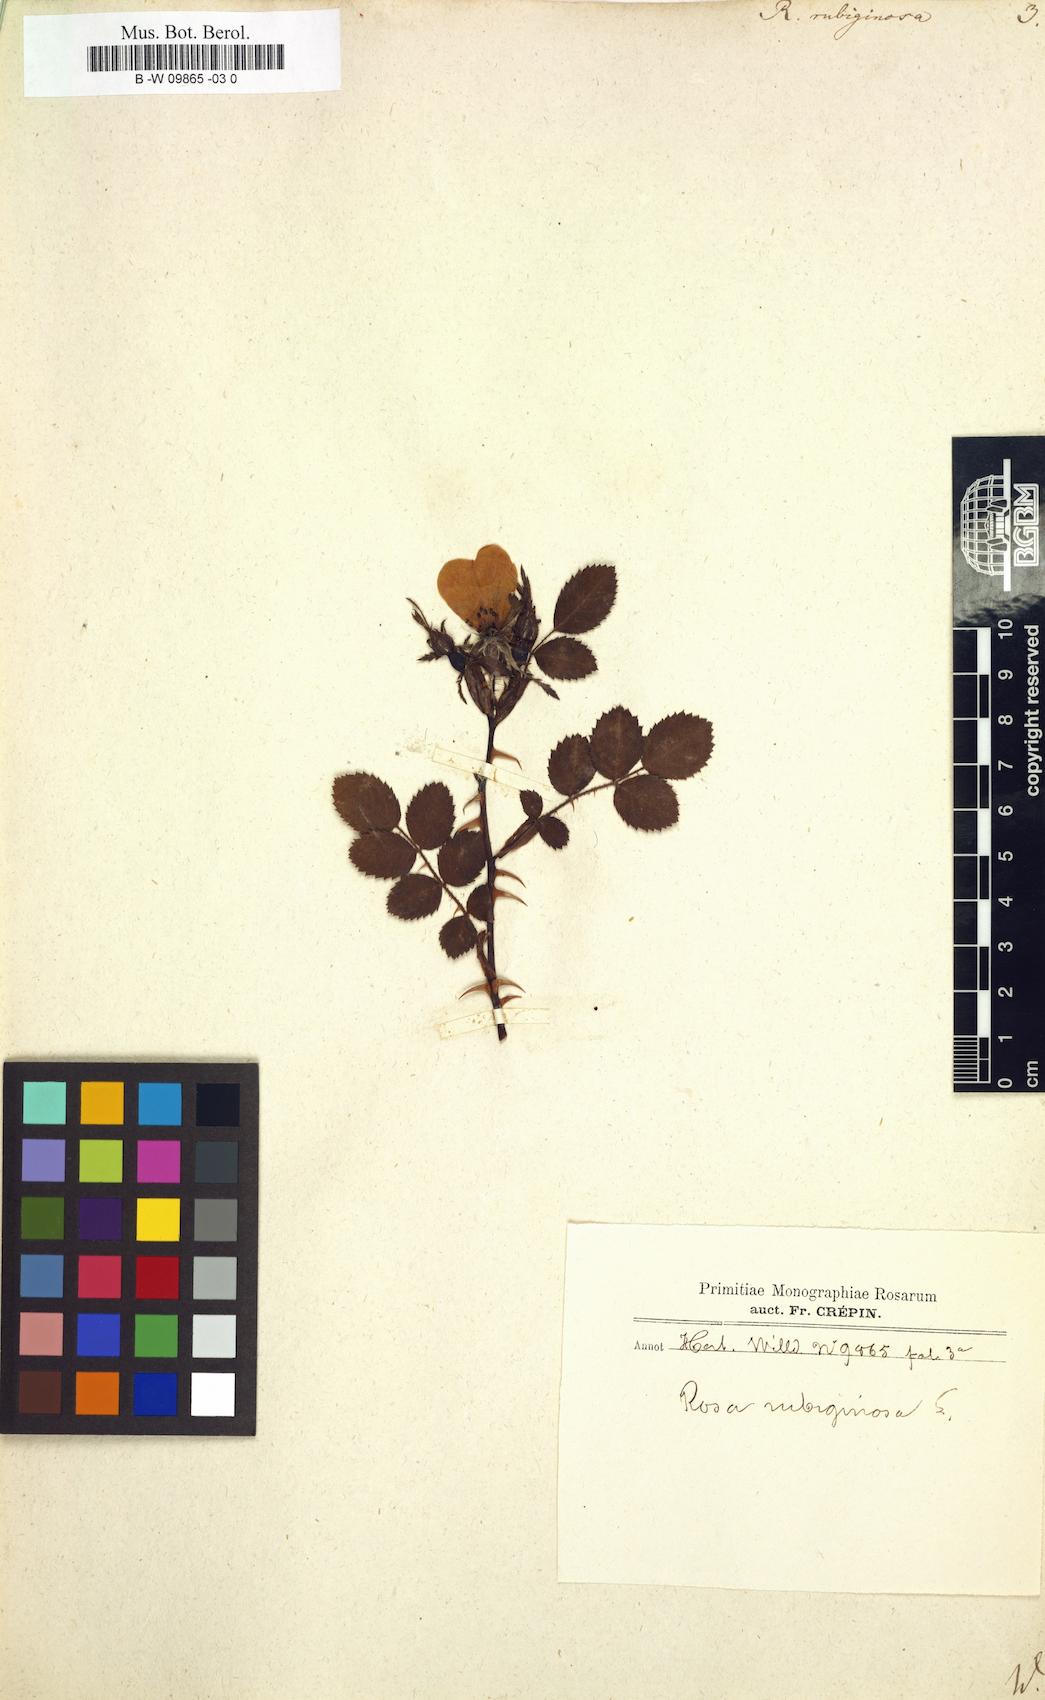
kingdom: Plantae
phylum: Tracheophyta
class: Magnoliopsida
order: Rosales
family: Rosaceae
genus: Rosa
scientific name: Rosa rubiginosa
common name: Sweet-briar
